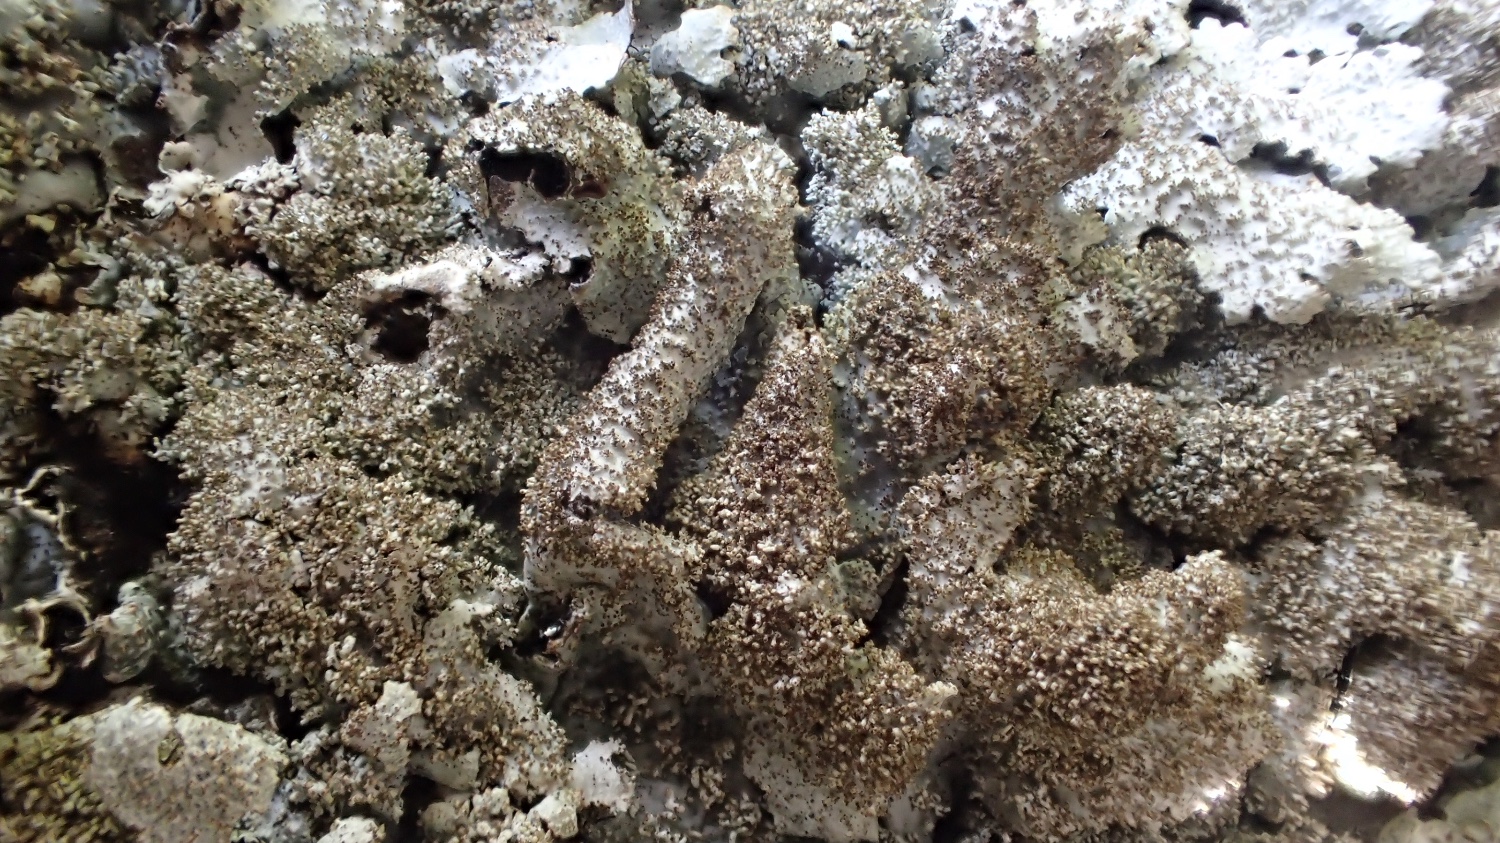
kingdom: Fungi
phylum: Ascomycota
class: Lecanoromycetes
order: Lecanorales
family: Parmeliaceae
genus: Parmelia
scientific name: Parmelia saxatilis
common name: farve-skållav
